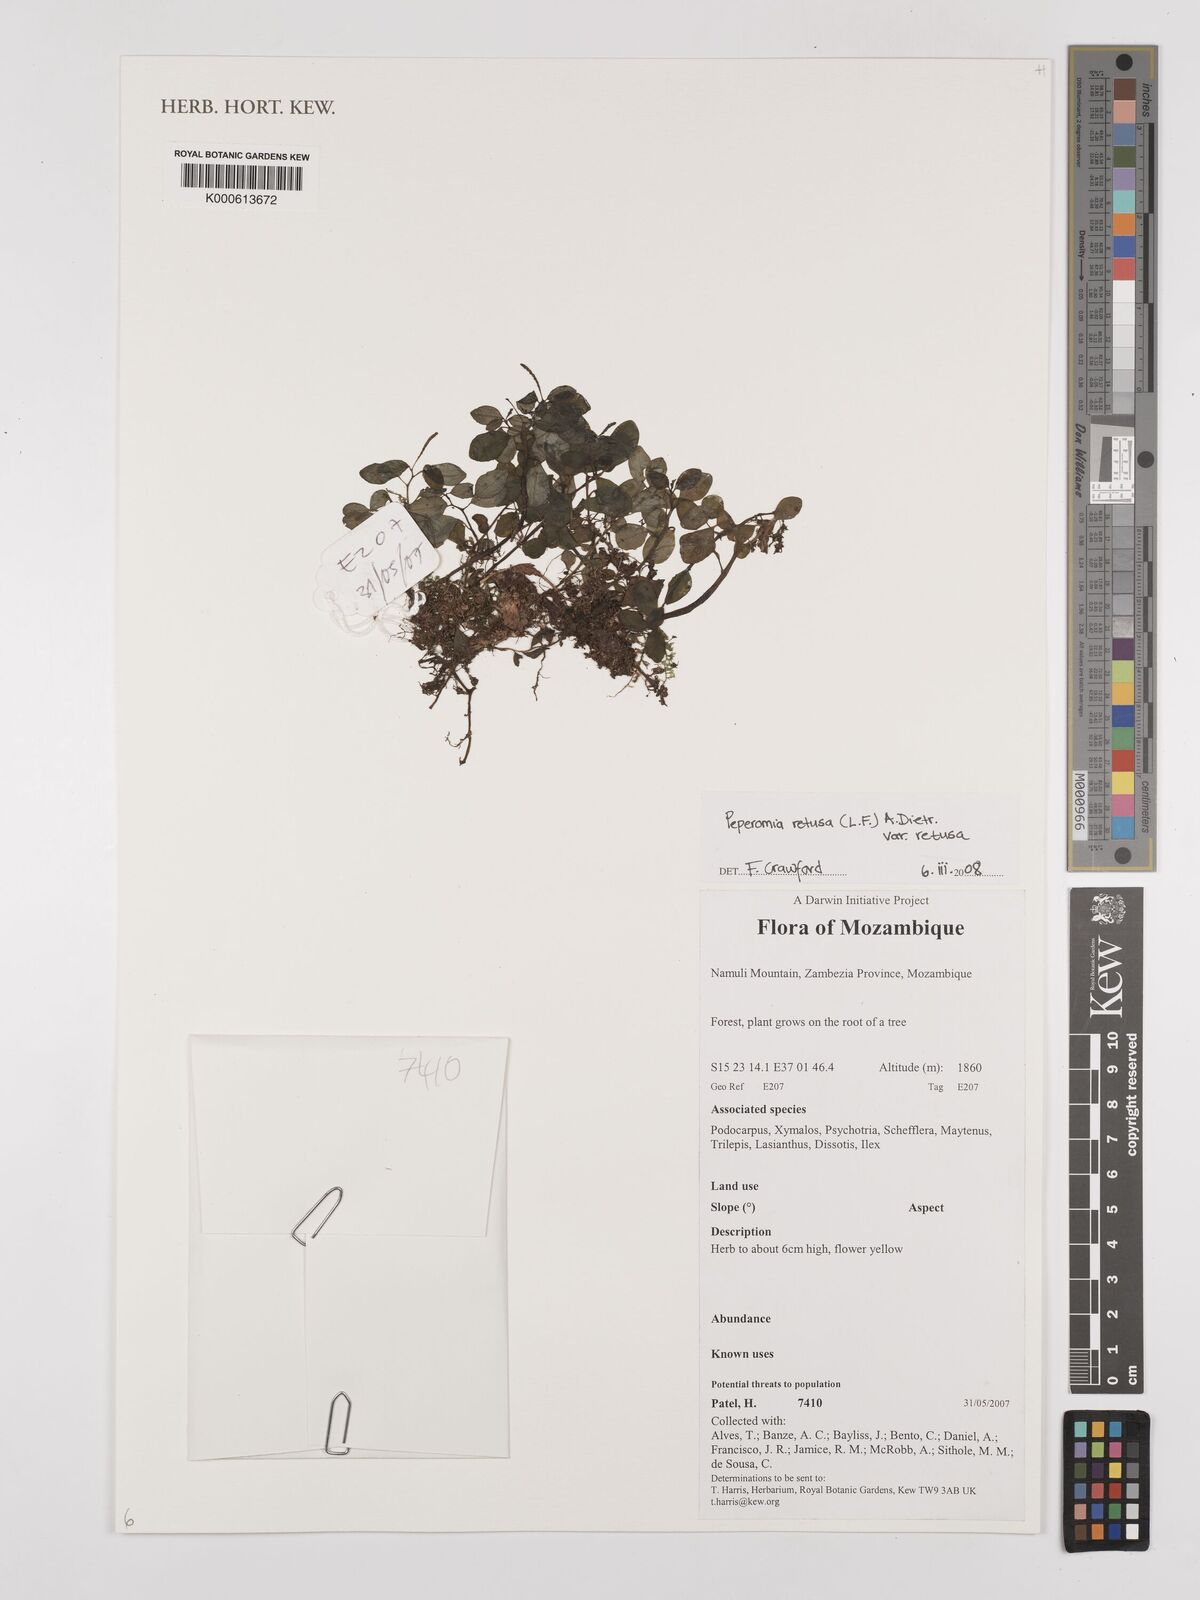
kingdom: Plantae
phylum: Tracheophyta
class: Magnoliopsida
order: Piperales
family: Piperaceae
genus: Peperomia
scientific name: Peperomia retusa
